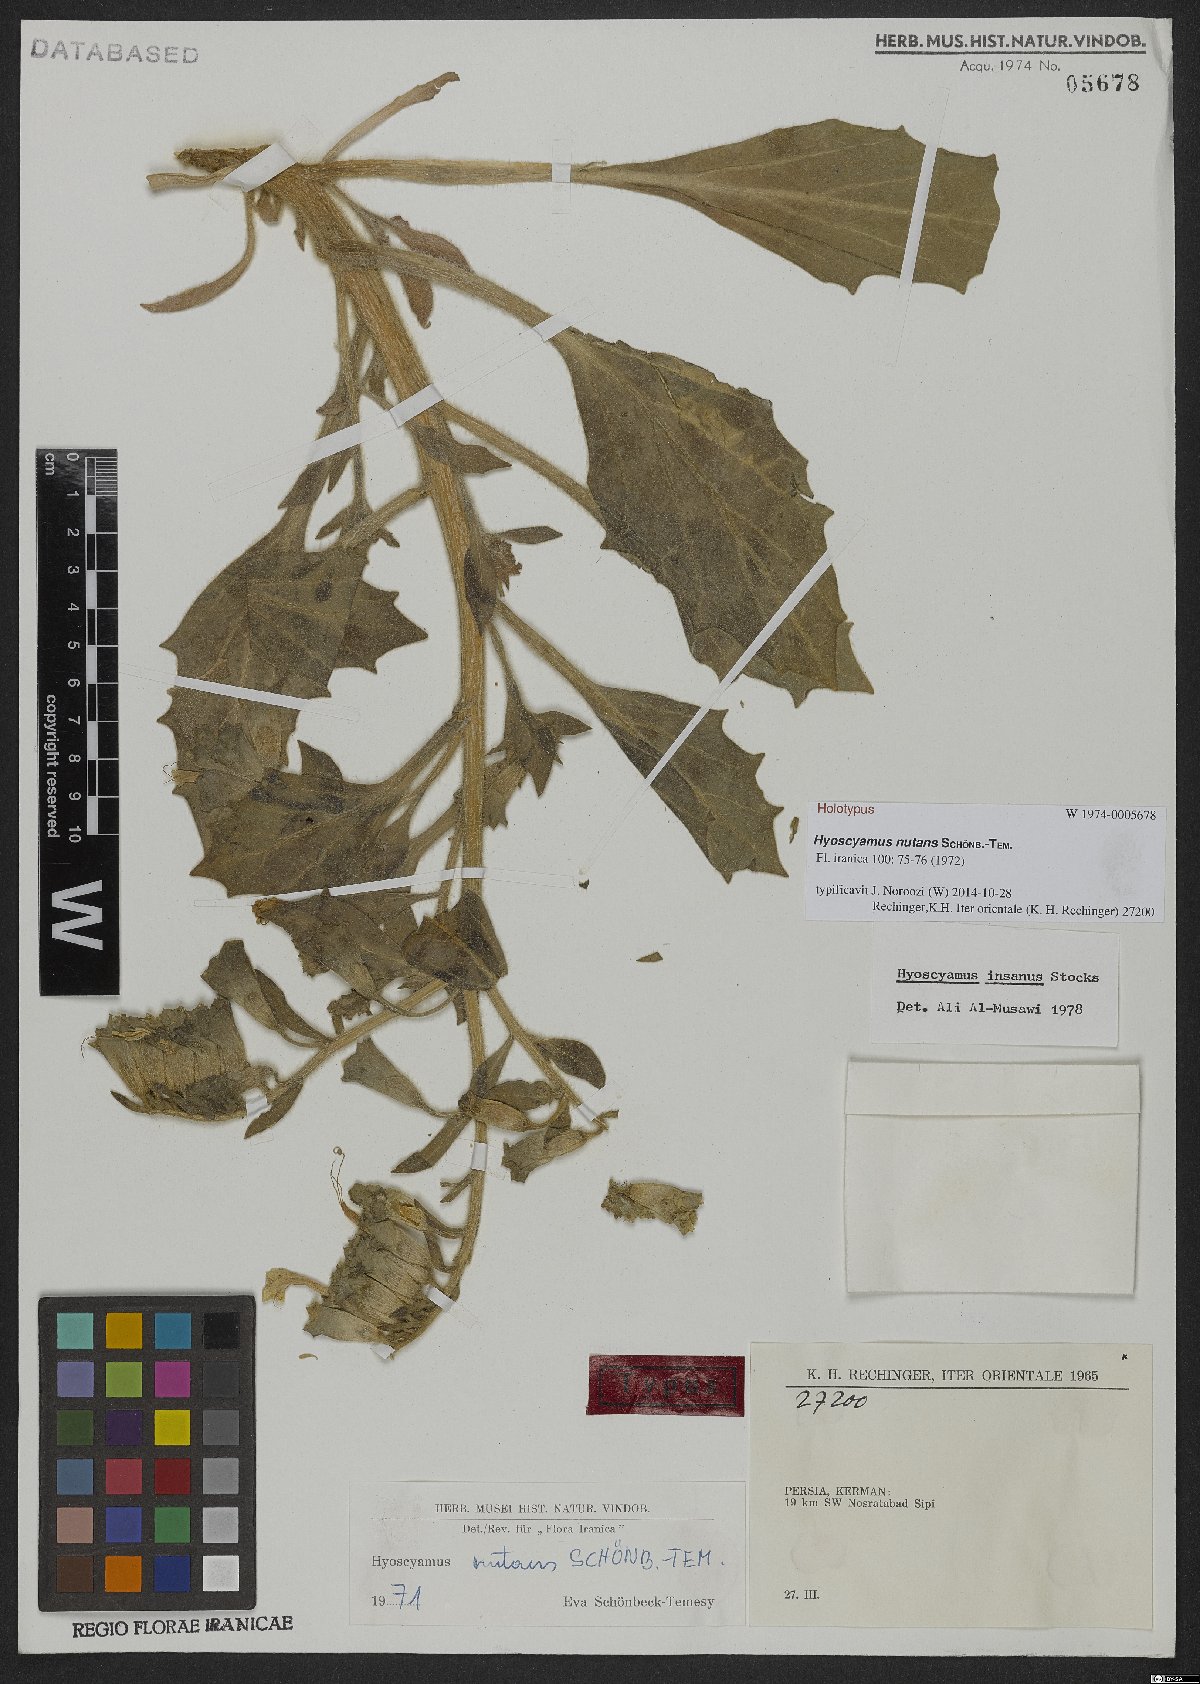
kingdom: Plantae
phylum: Tracheophyta
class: Magnoliopsida
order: Solanales
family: Solanaceae
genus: Hyoscyamus
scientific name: Hyoscyamus nutans
